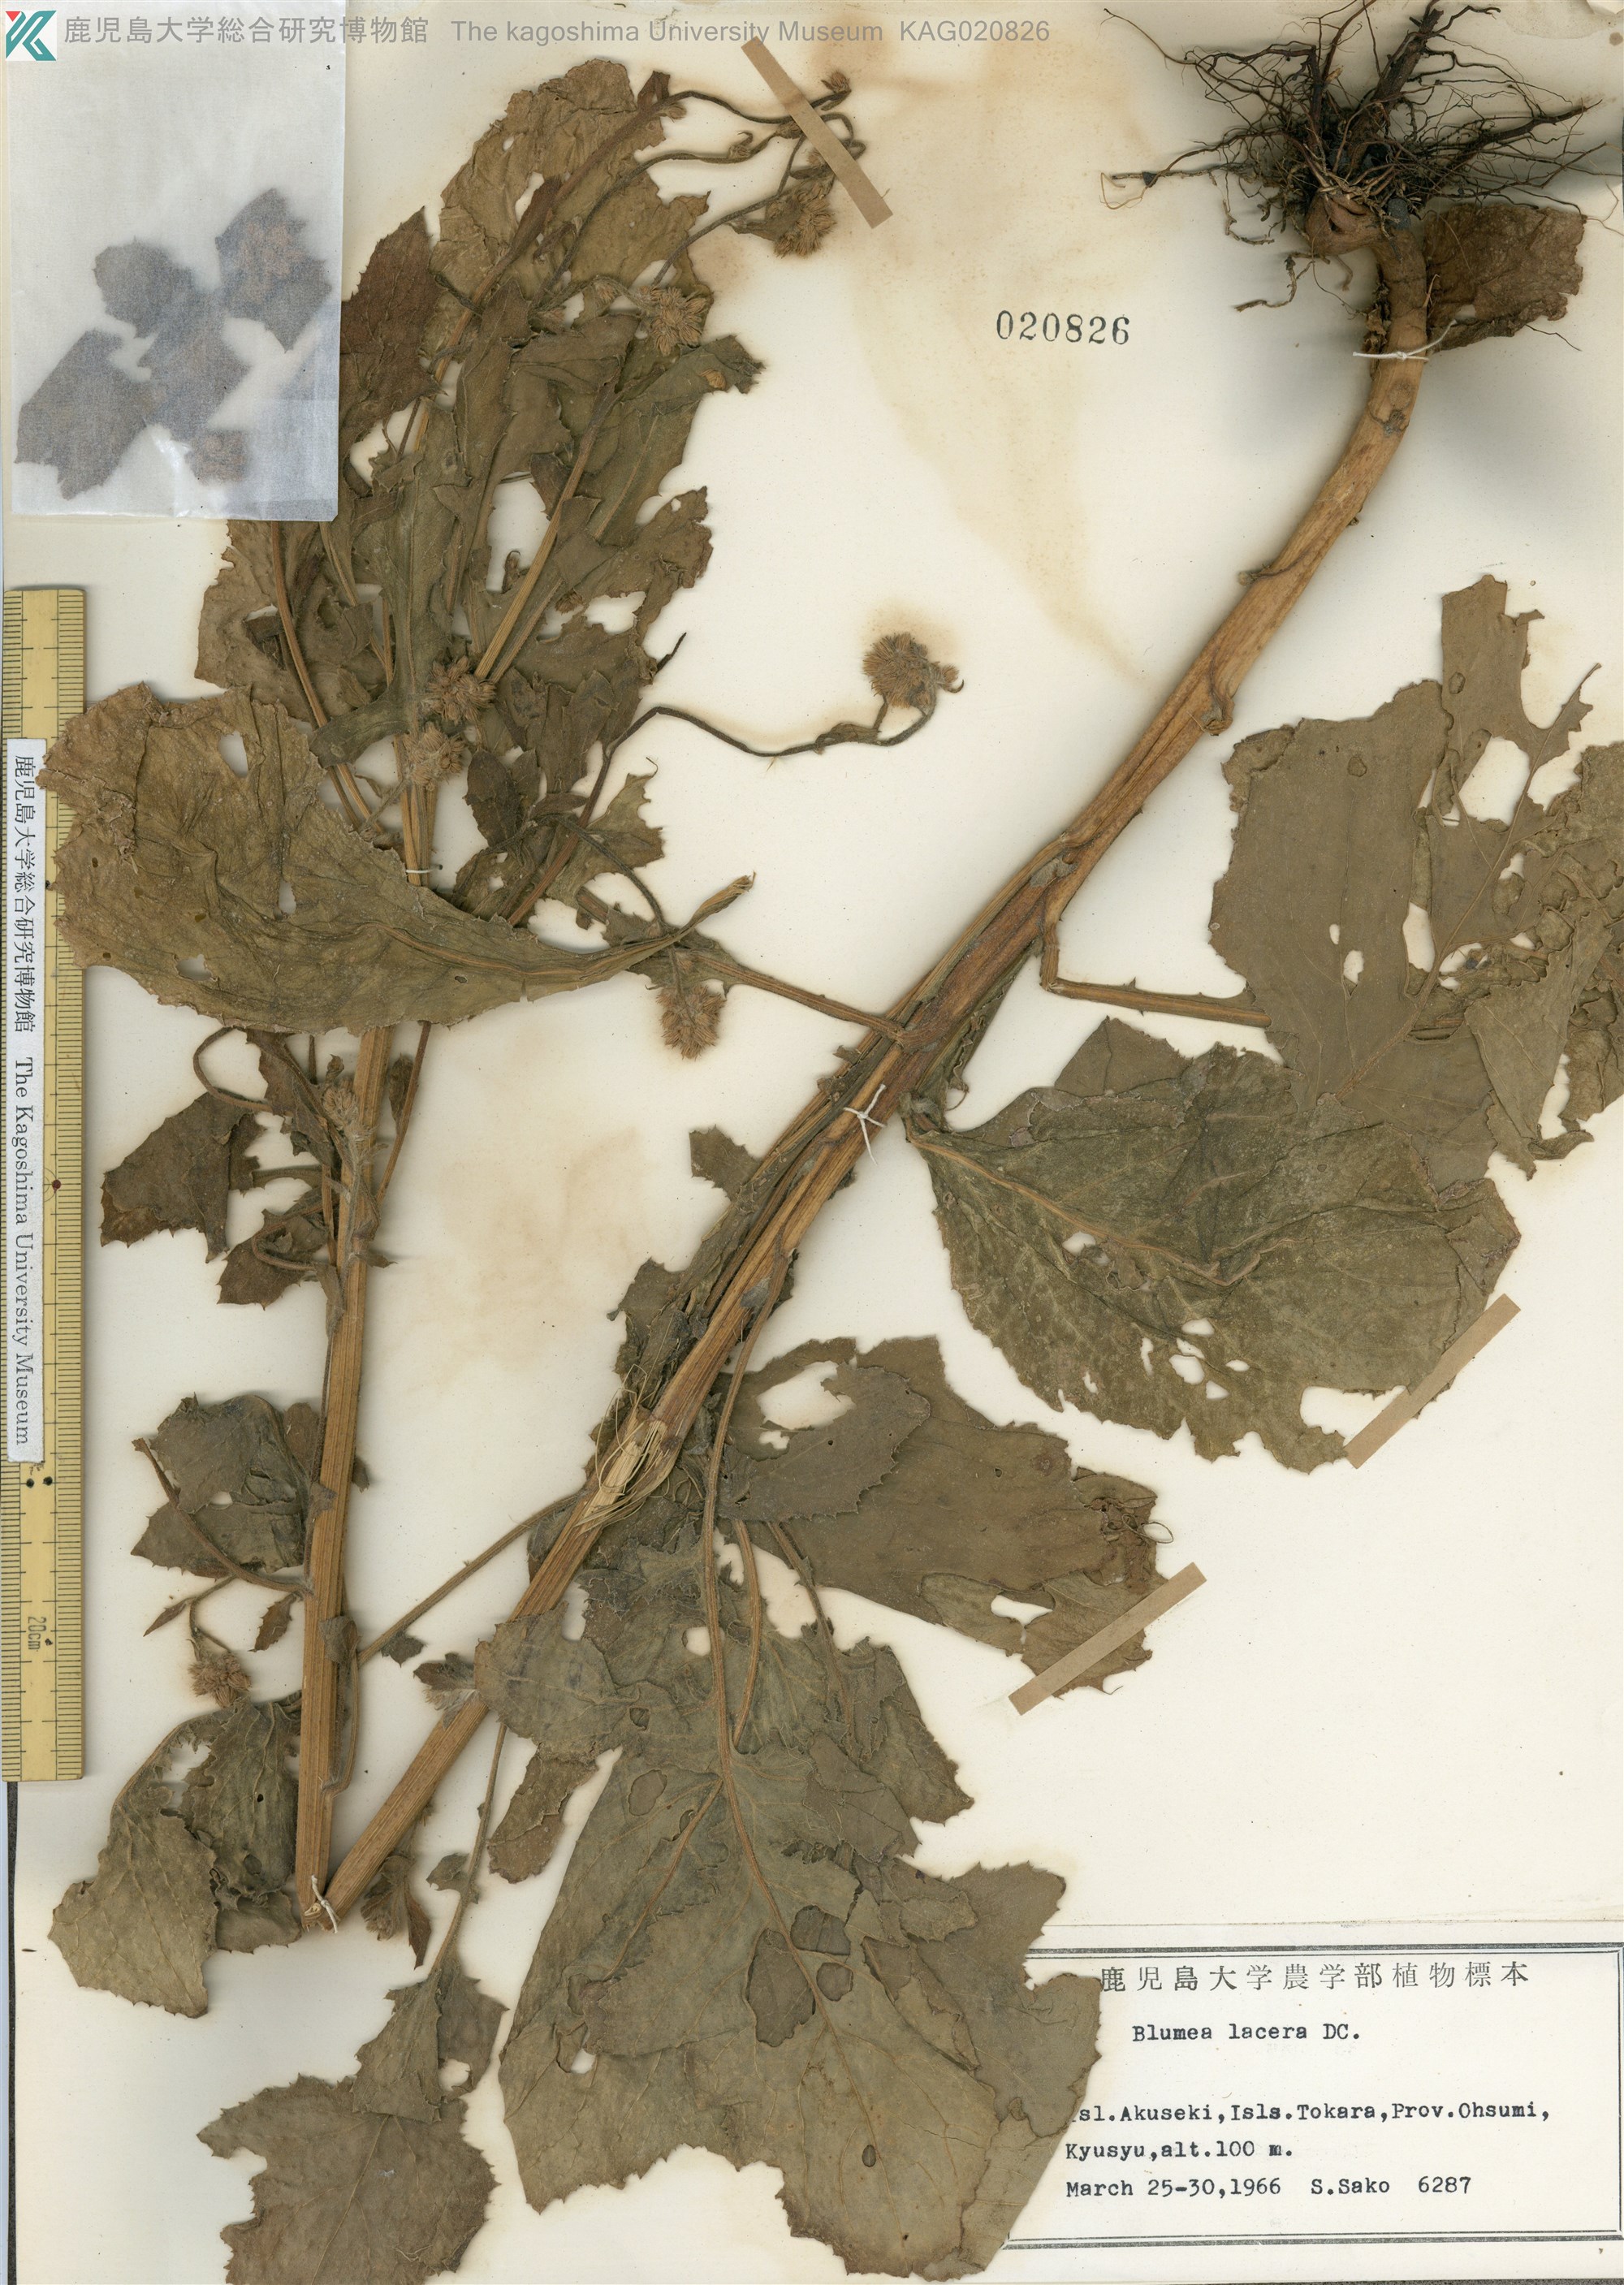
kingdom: Plantae
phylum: Tracheophyta
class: Magnoliopsida
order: Asterales
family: Asteraceae
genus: Blumea
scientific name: Blumea sinuata
